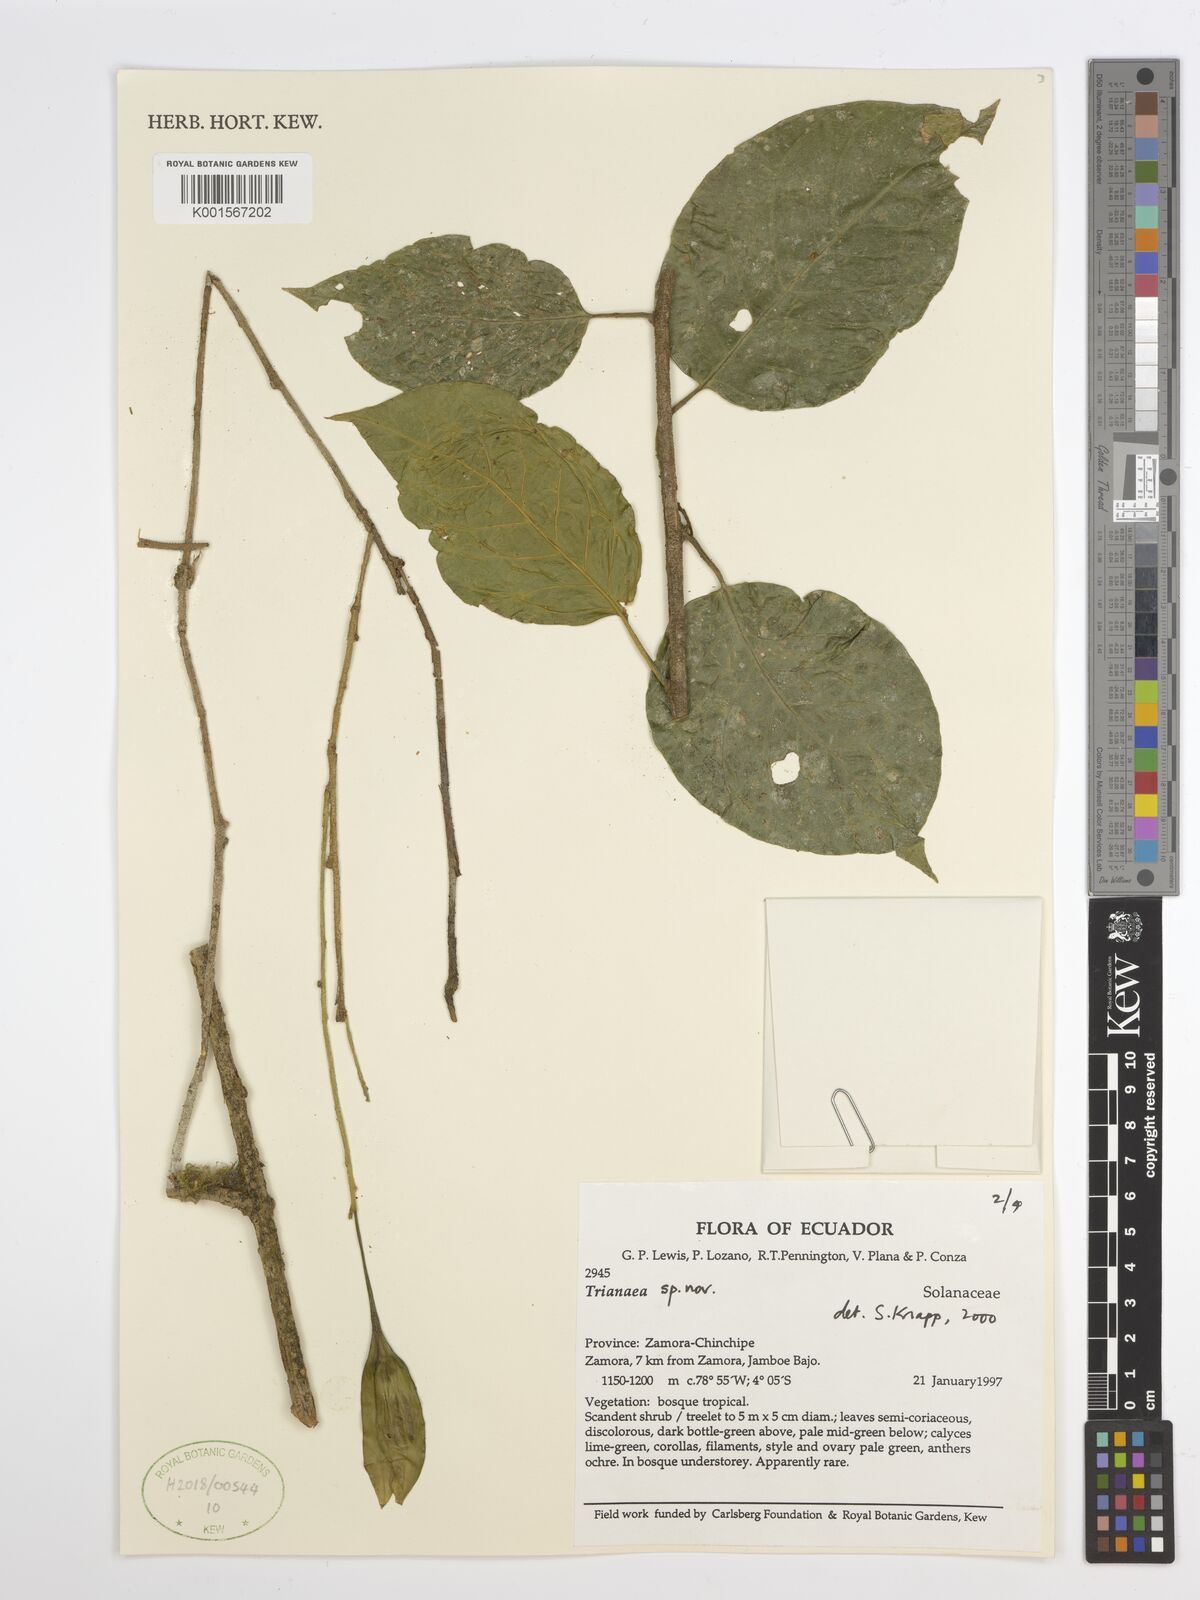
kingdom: Plantae
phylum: Tracheophyta
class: Magnoliopsida
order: Solanales
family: Solanaceae
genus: Trianaea
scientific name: Trianaea
